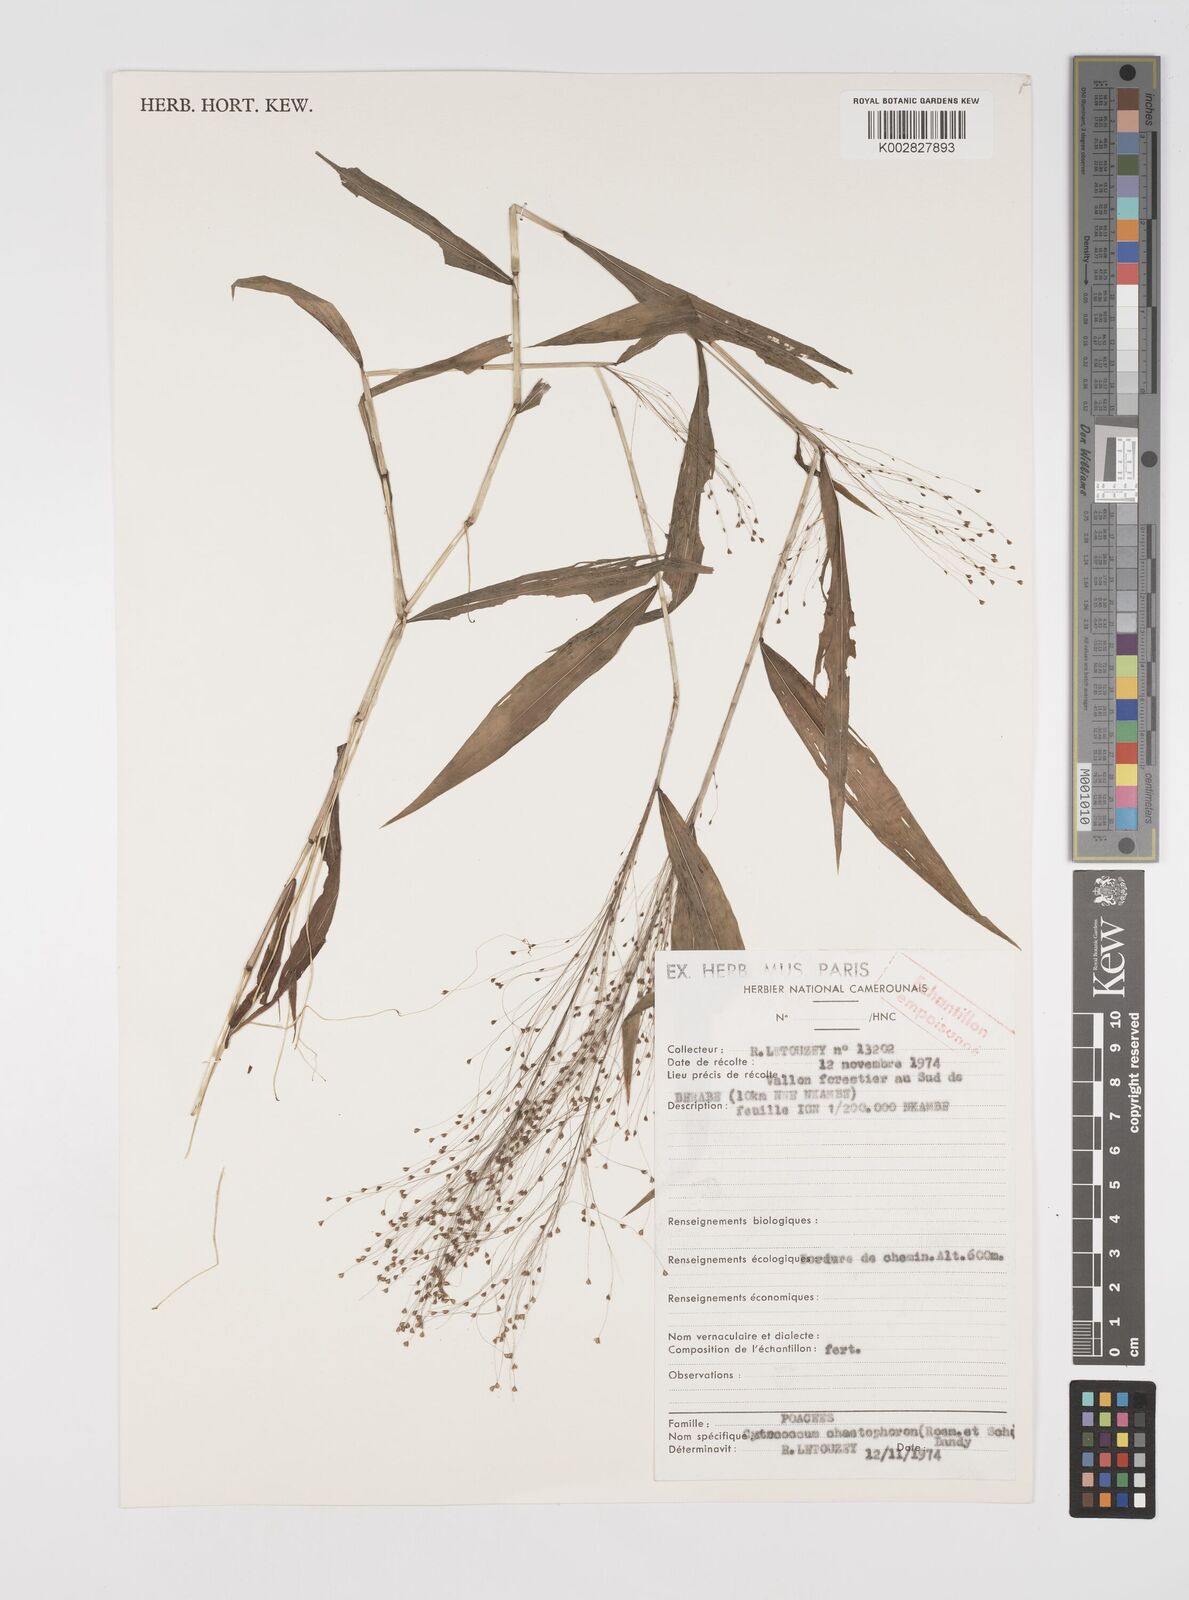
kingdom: Plantae
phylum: Tracheophyta
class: Liliopsida
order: Poales
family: Poaceae
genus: Cyrtococcum
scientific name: Cyrtococcum chaetophoron
